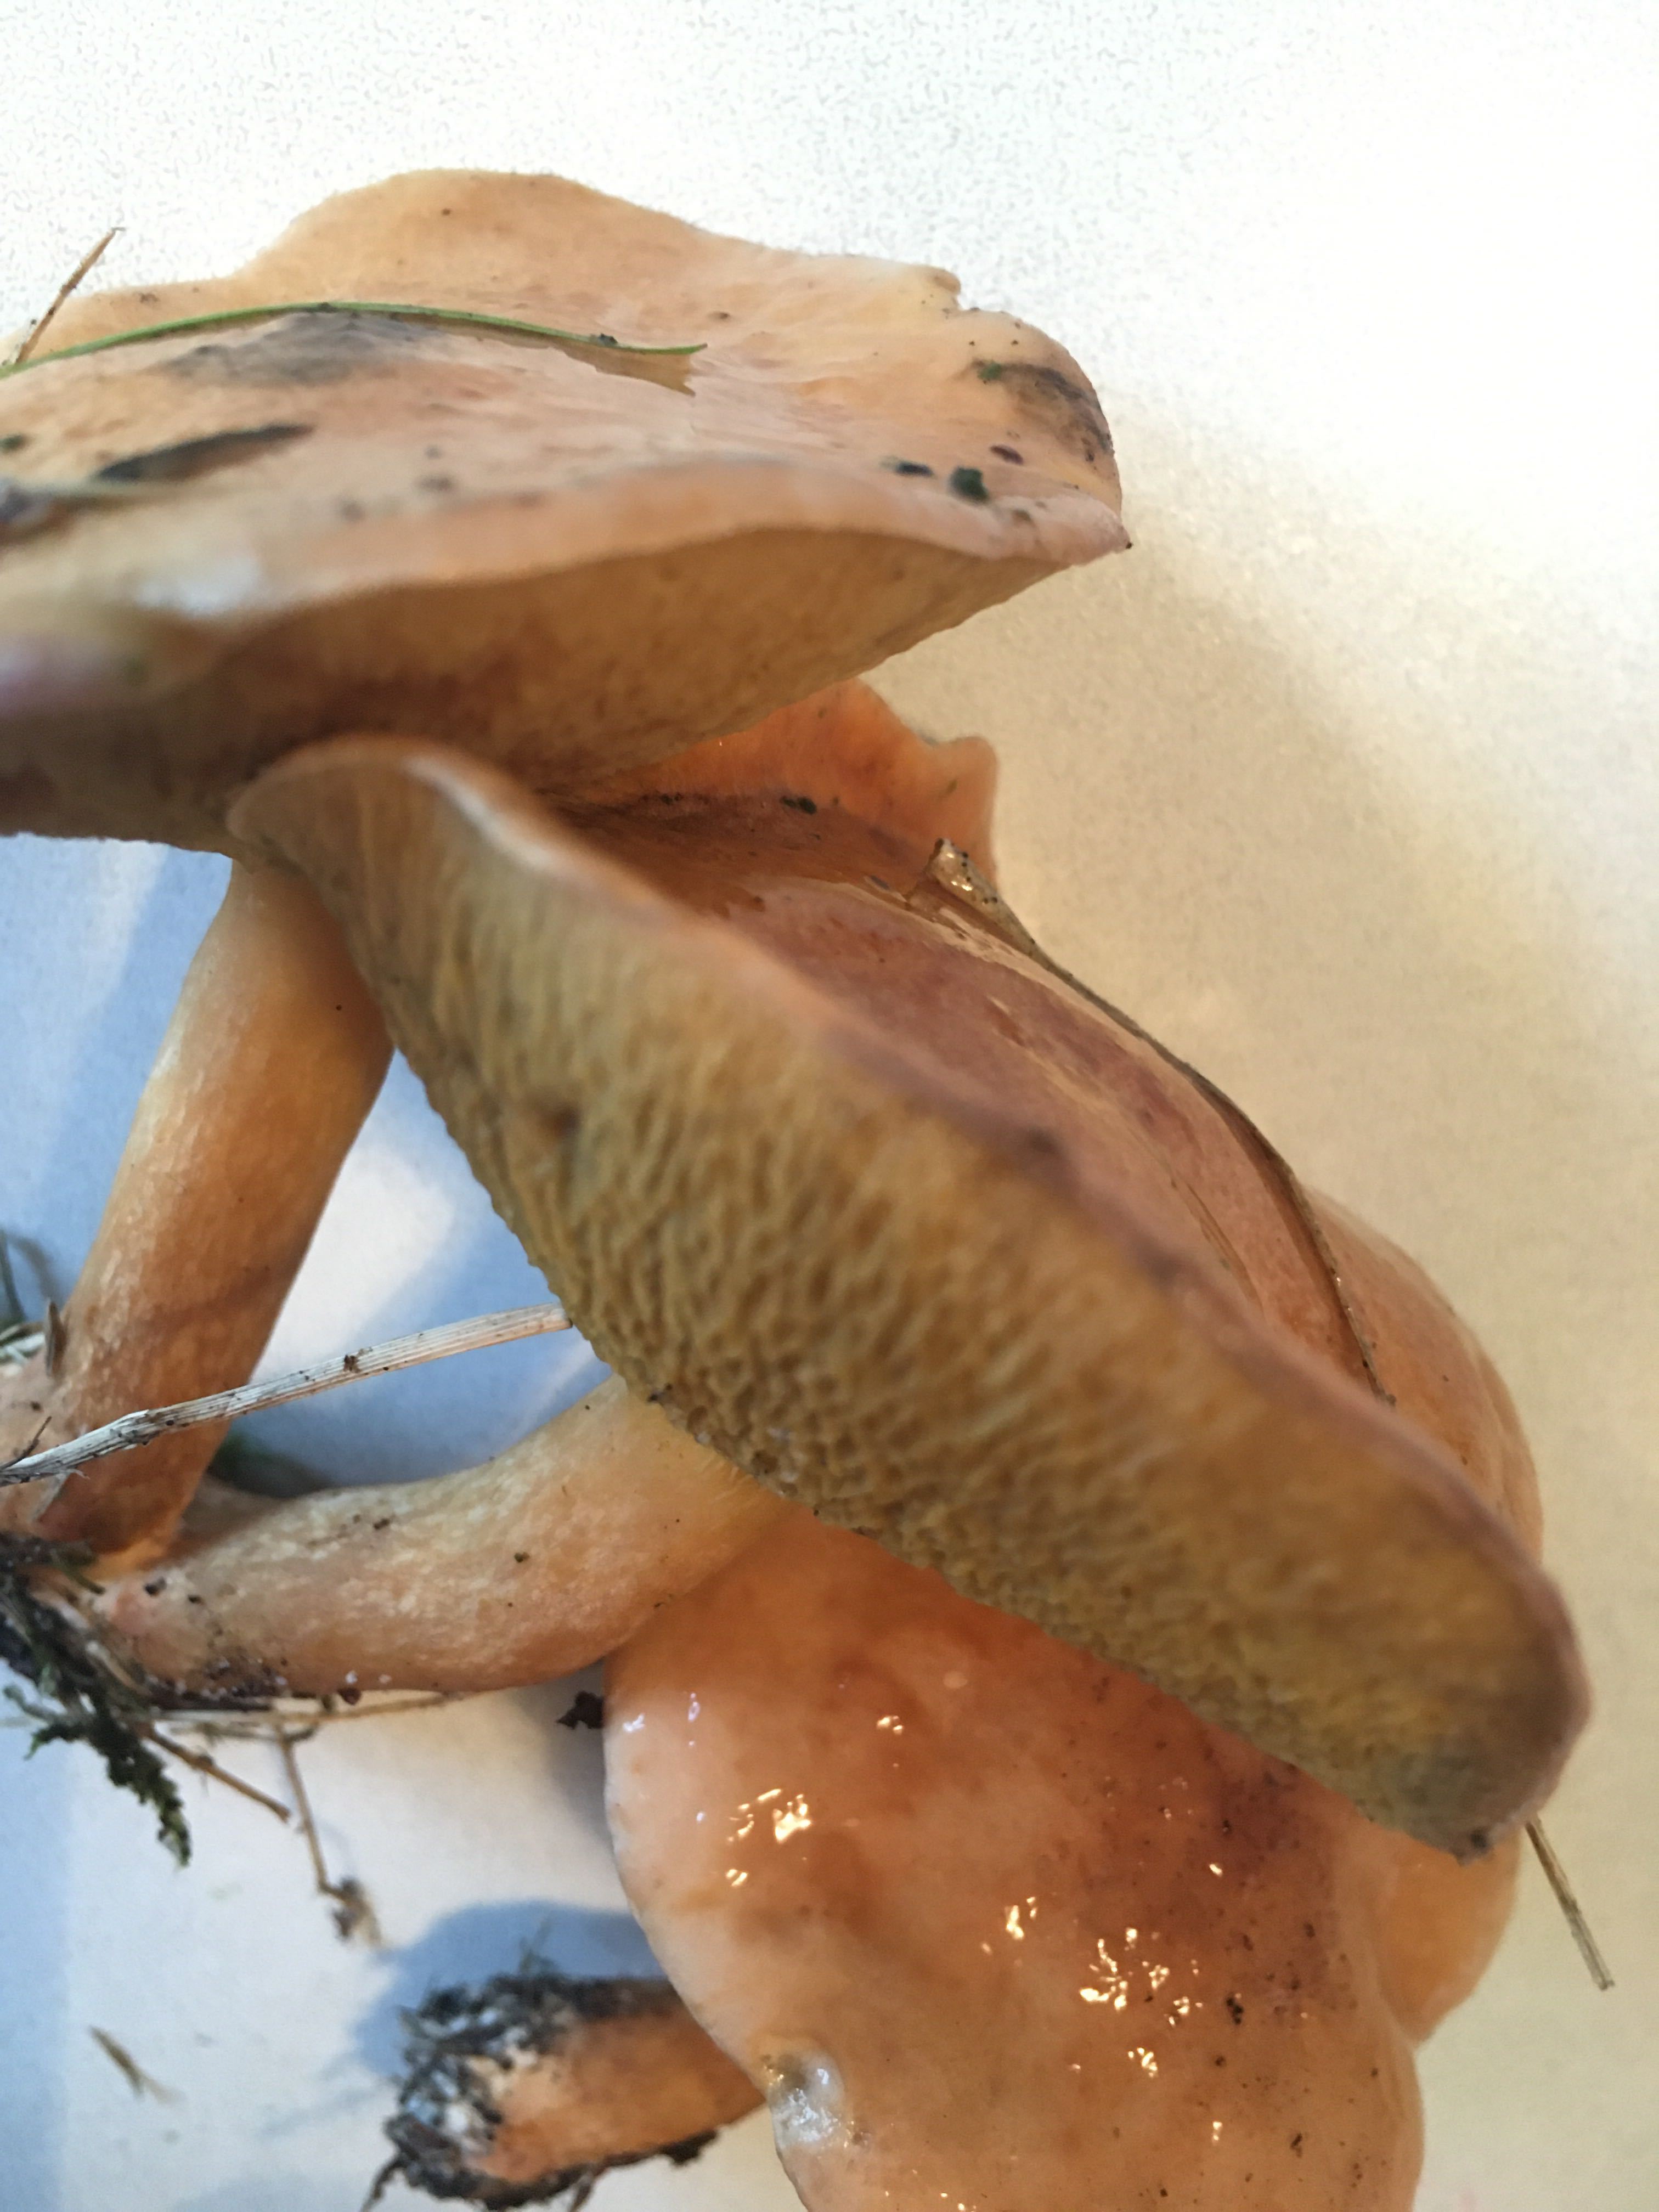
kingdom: Fungi
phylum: Basidiomycota
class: Agaricomycetes
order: Boletales
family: Suillaceae
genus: Suillus
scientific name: Suillus bovinus
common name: grovporet slimrørhat
